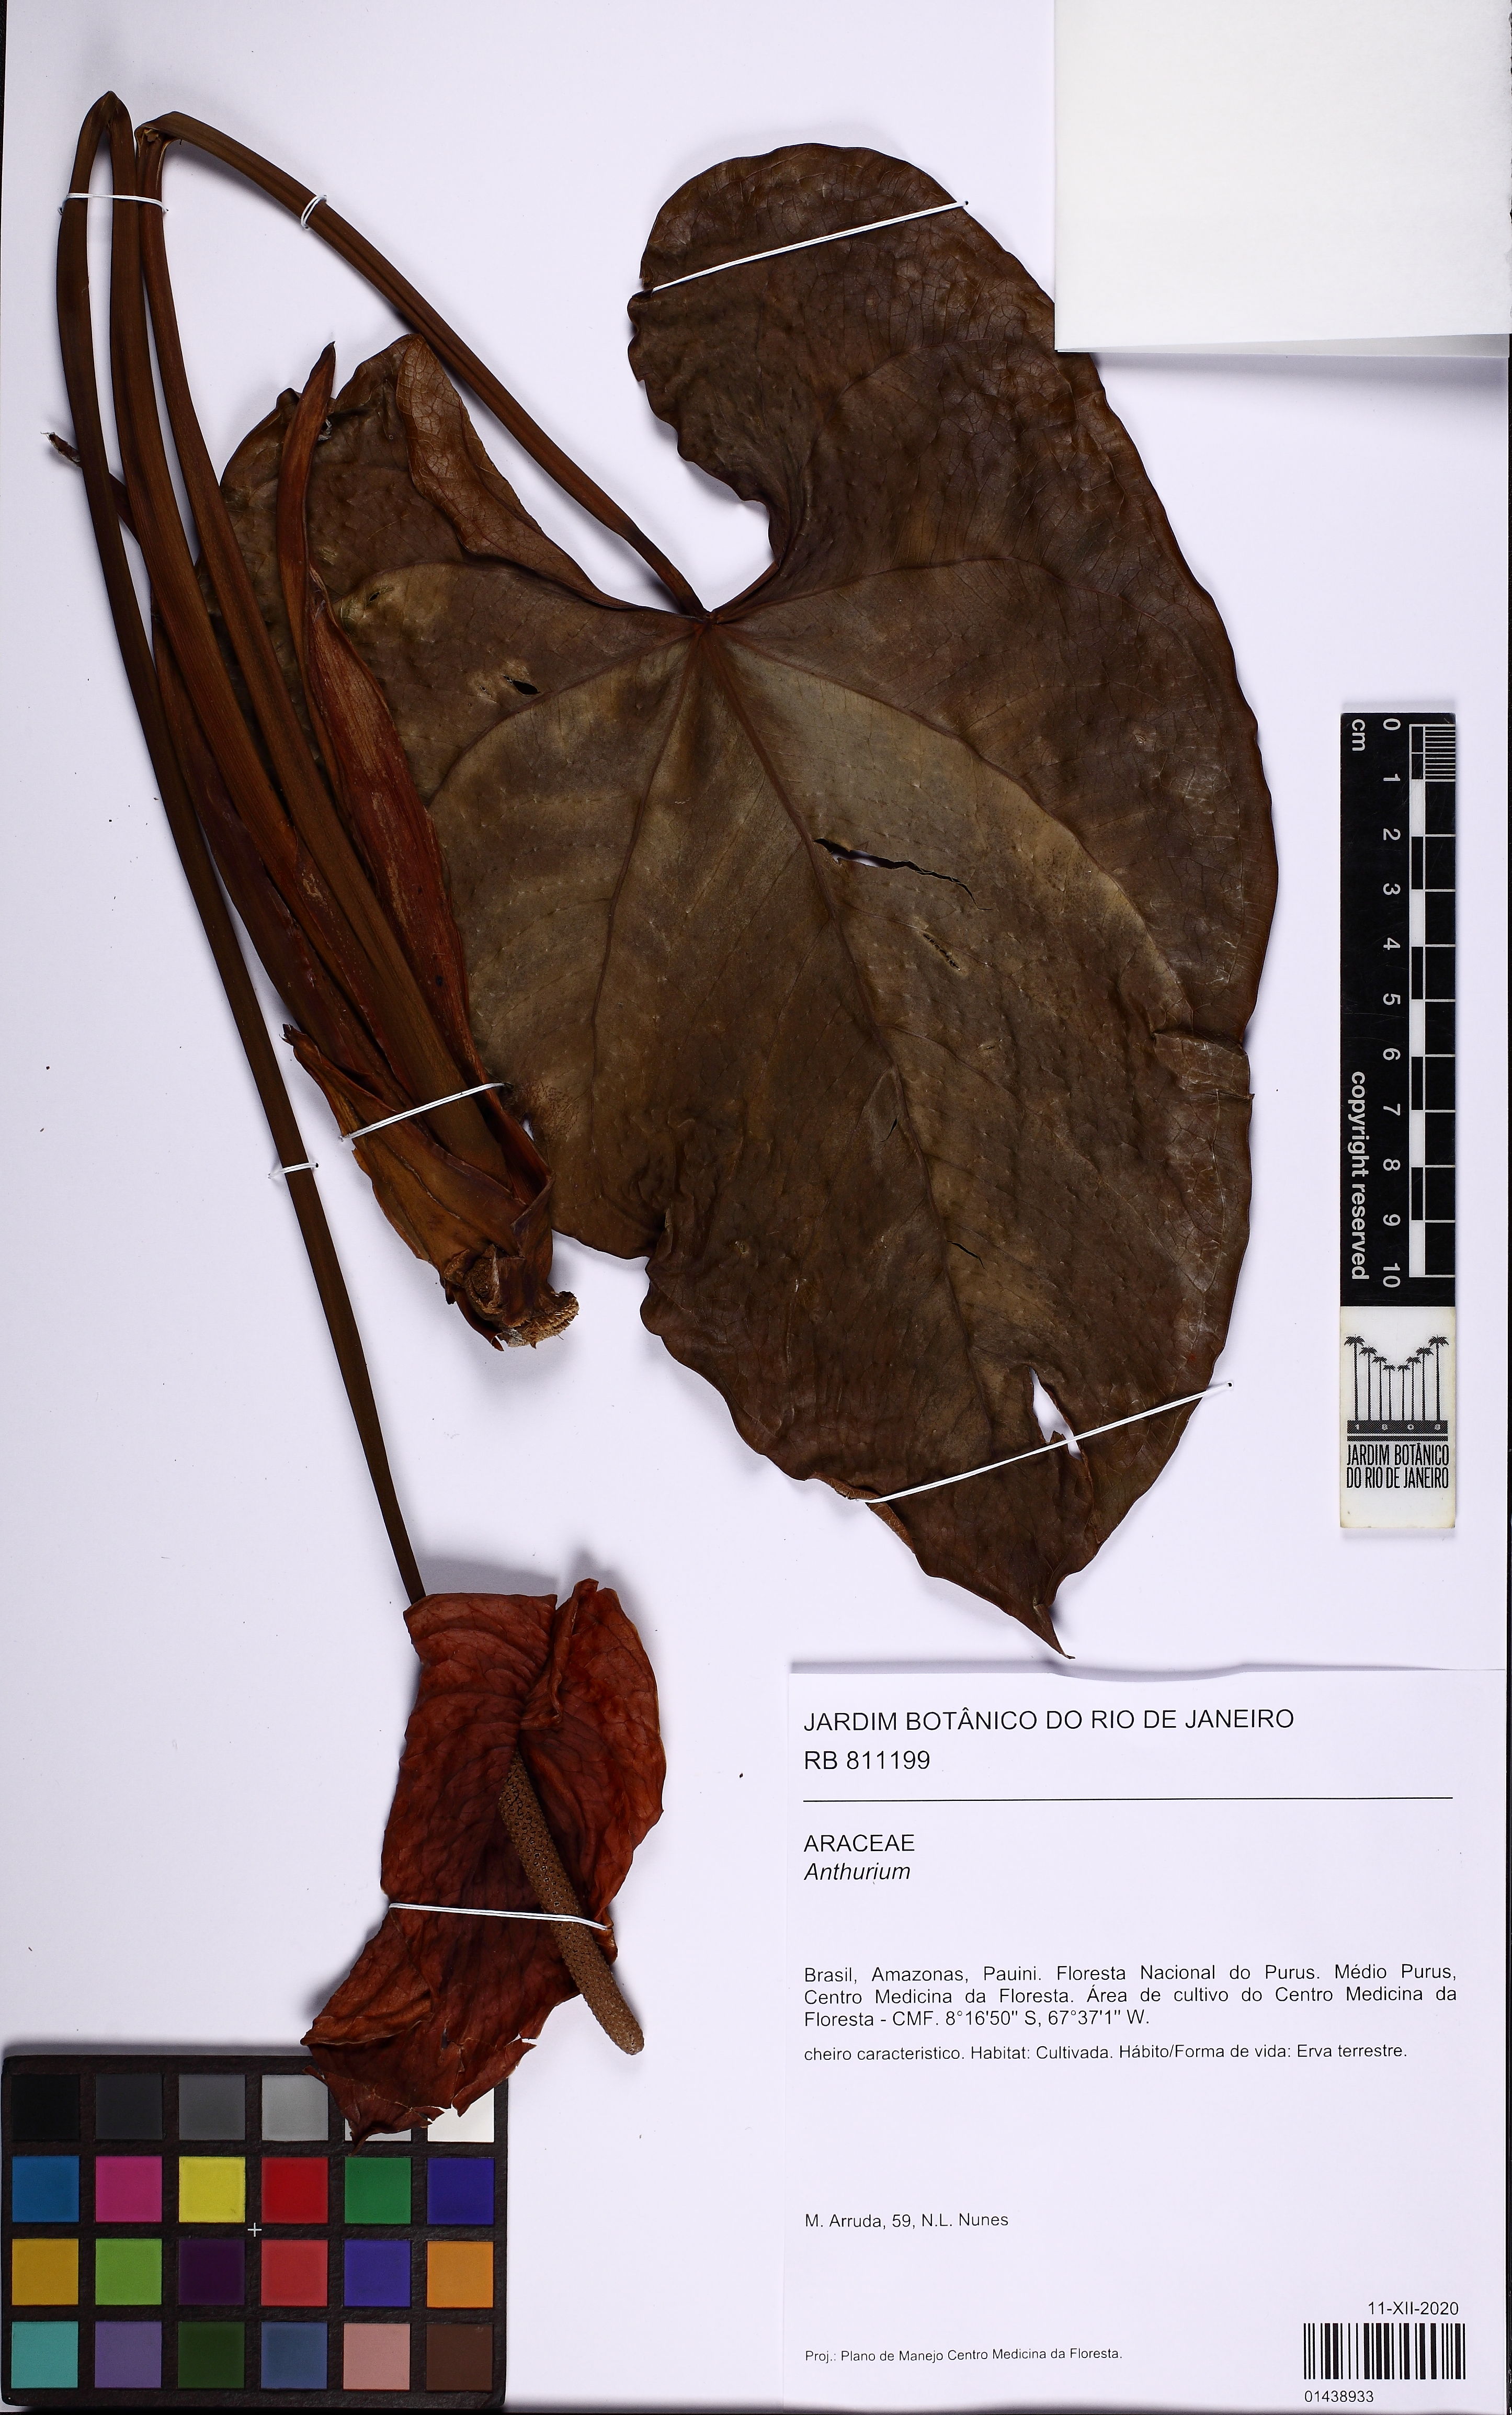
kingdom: Plantae
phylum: Tracheophyta
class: Liliopsida
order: Alismatales
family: Araceae
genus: Anthurium
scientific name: Anthurium
